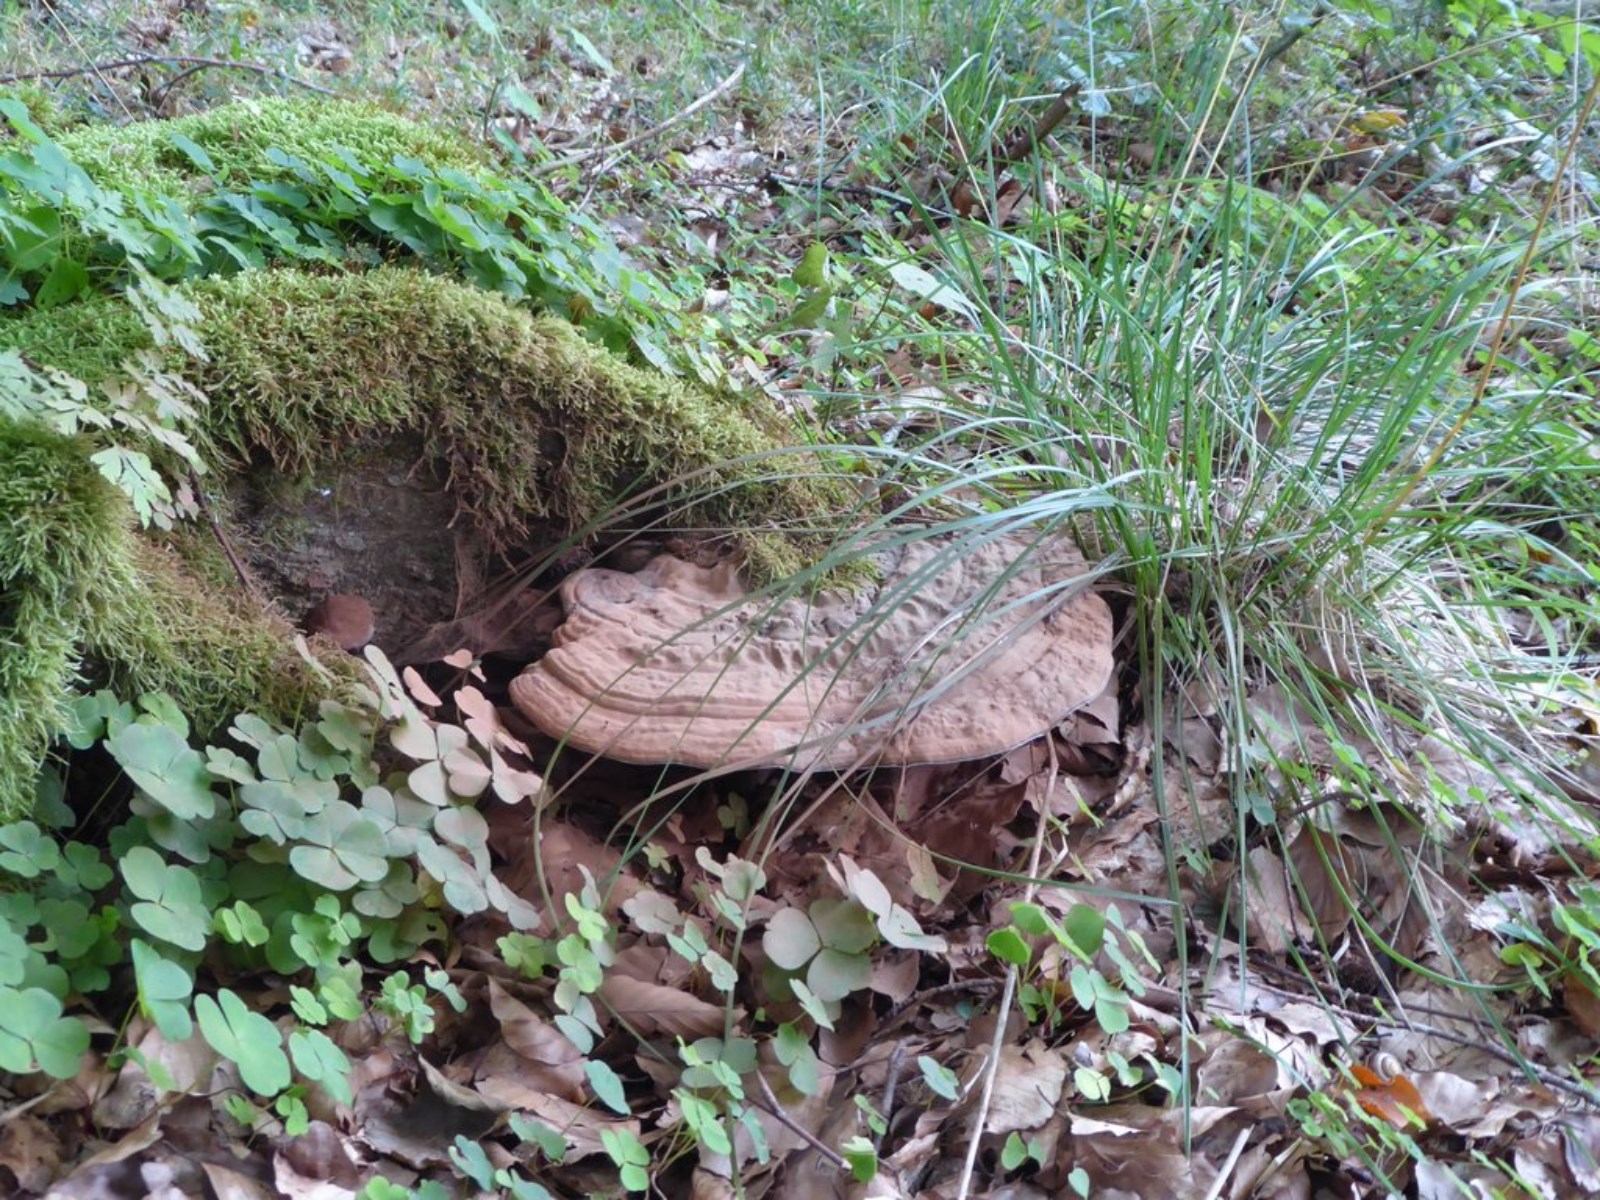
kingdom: Fungi
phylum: Basidiomycota
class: Agaricomycetes
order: Polyporales
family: Polyporaceae
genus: Ganoderma
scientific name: Ganoderma applanatum
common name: flad lakporesvamp
